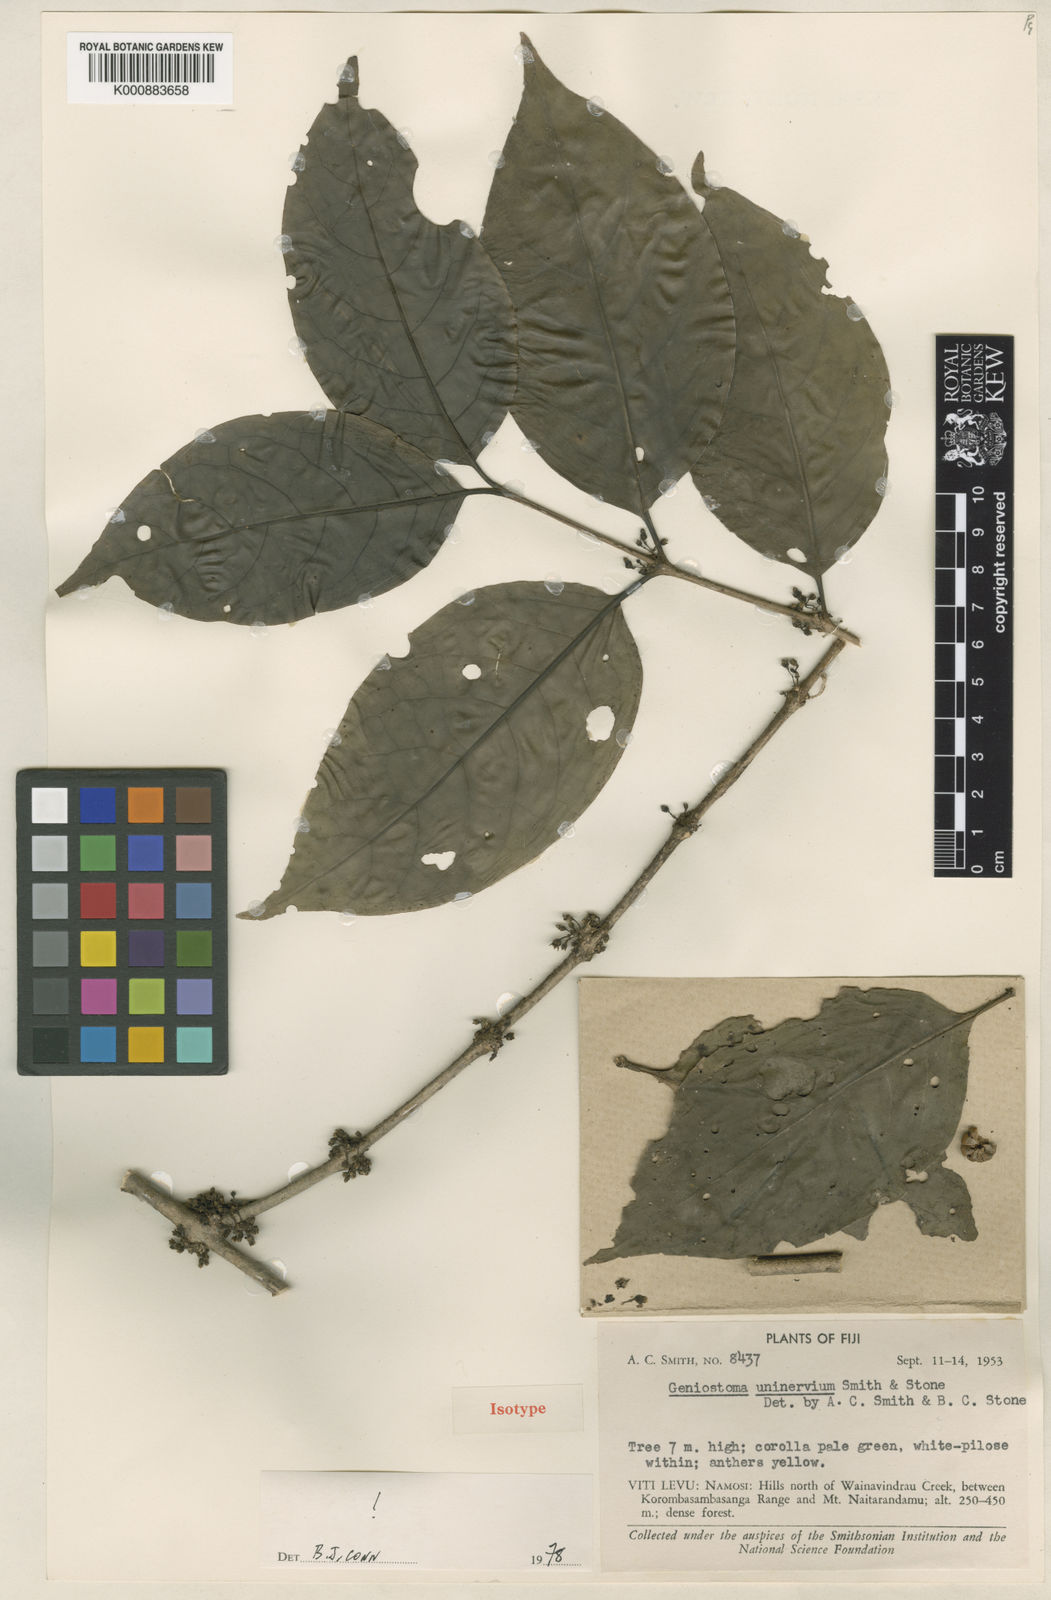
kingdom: Plantae
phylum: Tracheophyta
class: Magnoliopsida
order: Gentianales
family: Loganiaceae
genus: Geniostoma
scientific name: Geniostoma rupestre
